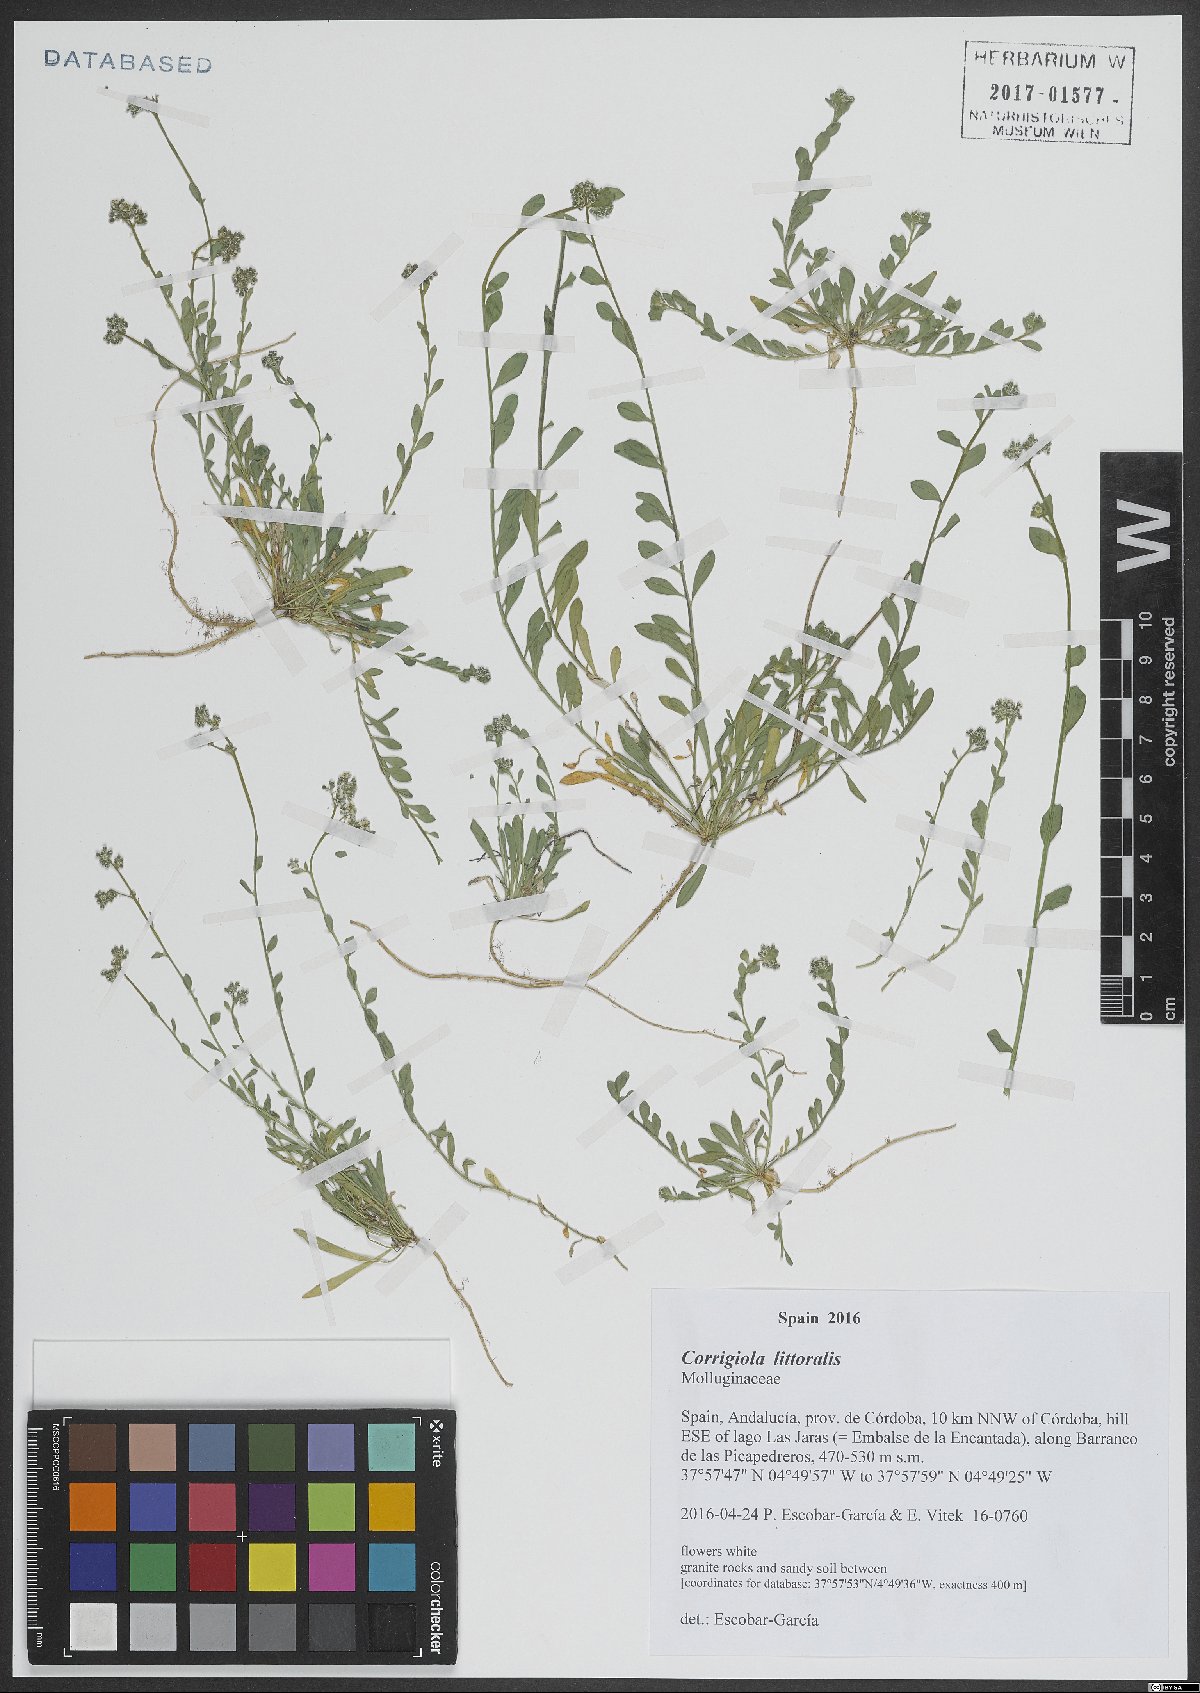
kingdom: Plantae
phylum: Tracheophyta
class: Magnoliopsida
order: Caryophyllales
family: Caryophyllaceae
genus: Corrigiola
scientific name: Corrigiola litoralis
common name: Strapwort
